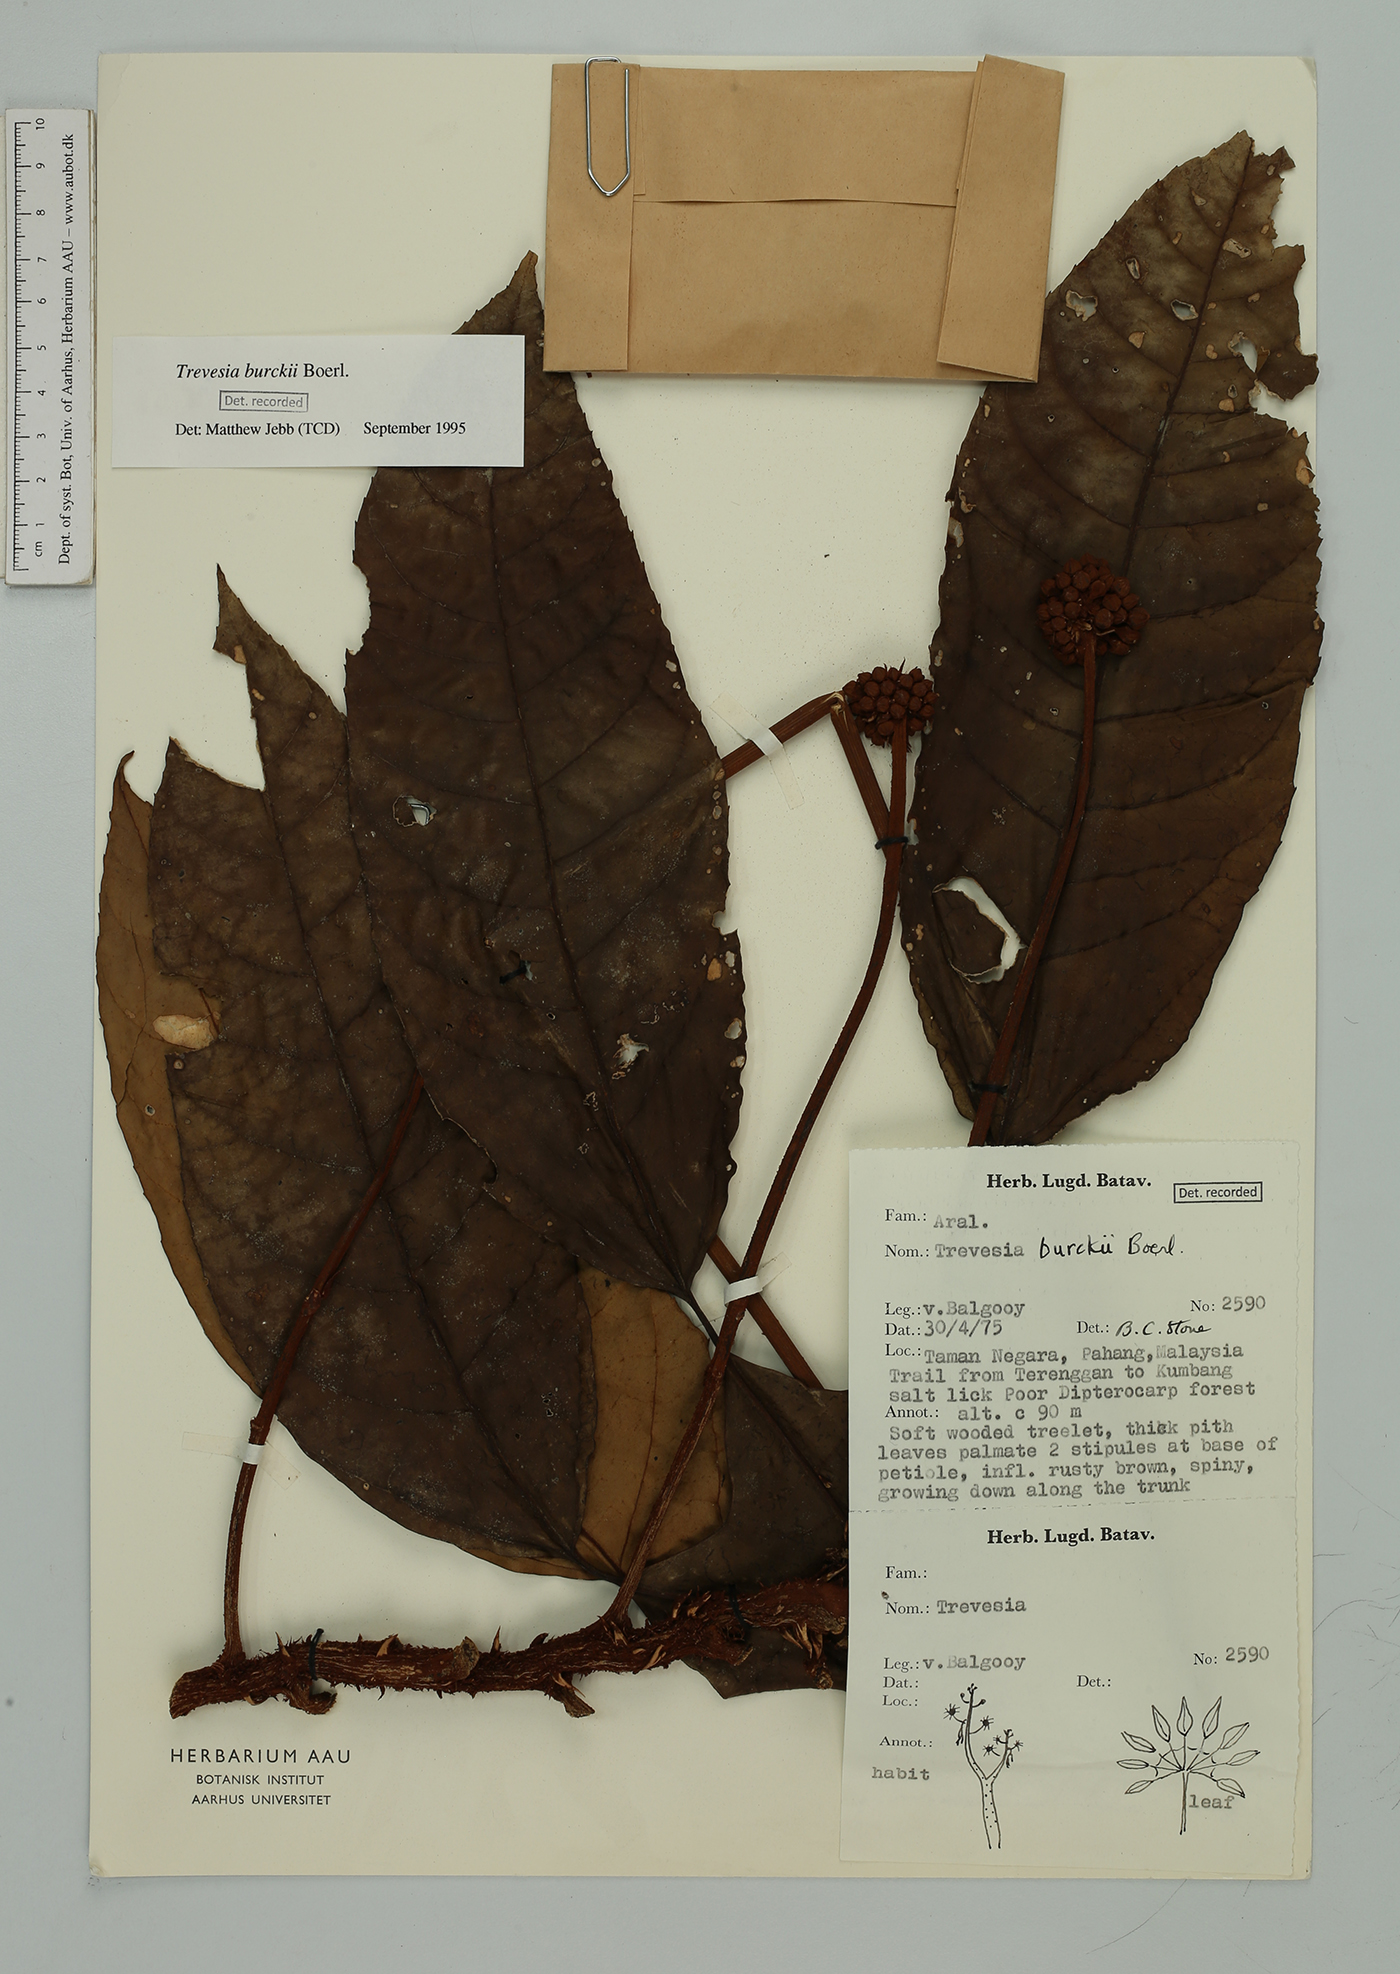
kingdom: Plantae
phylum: Tracheophyta
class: Magnoliopsida
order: Apiales
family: Araliaceae
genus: Trevesia
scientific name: Trevesia burckii
